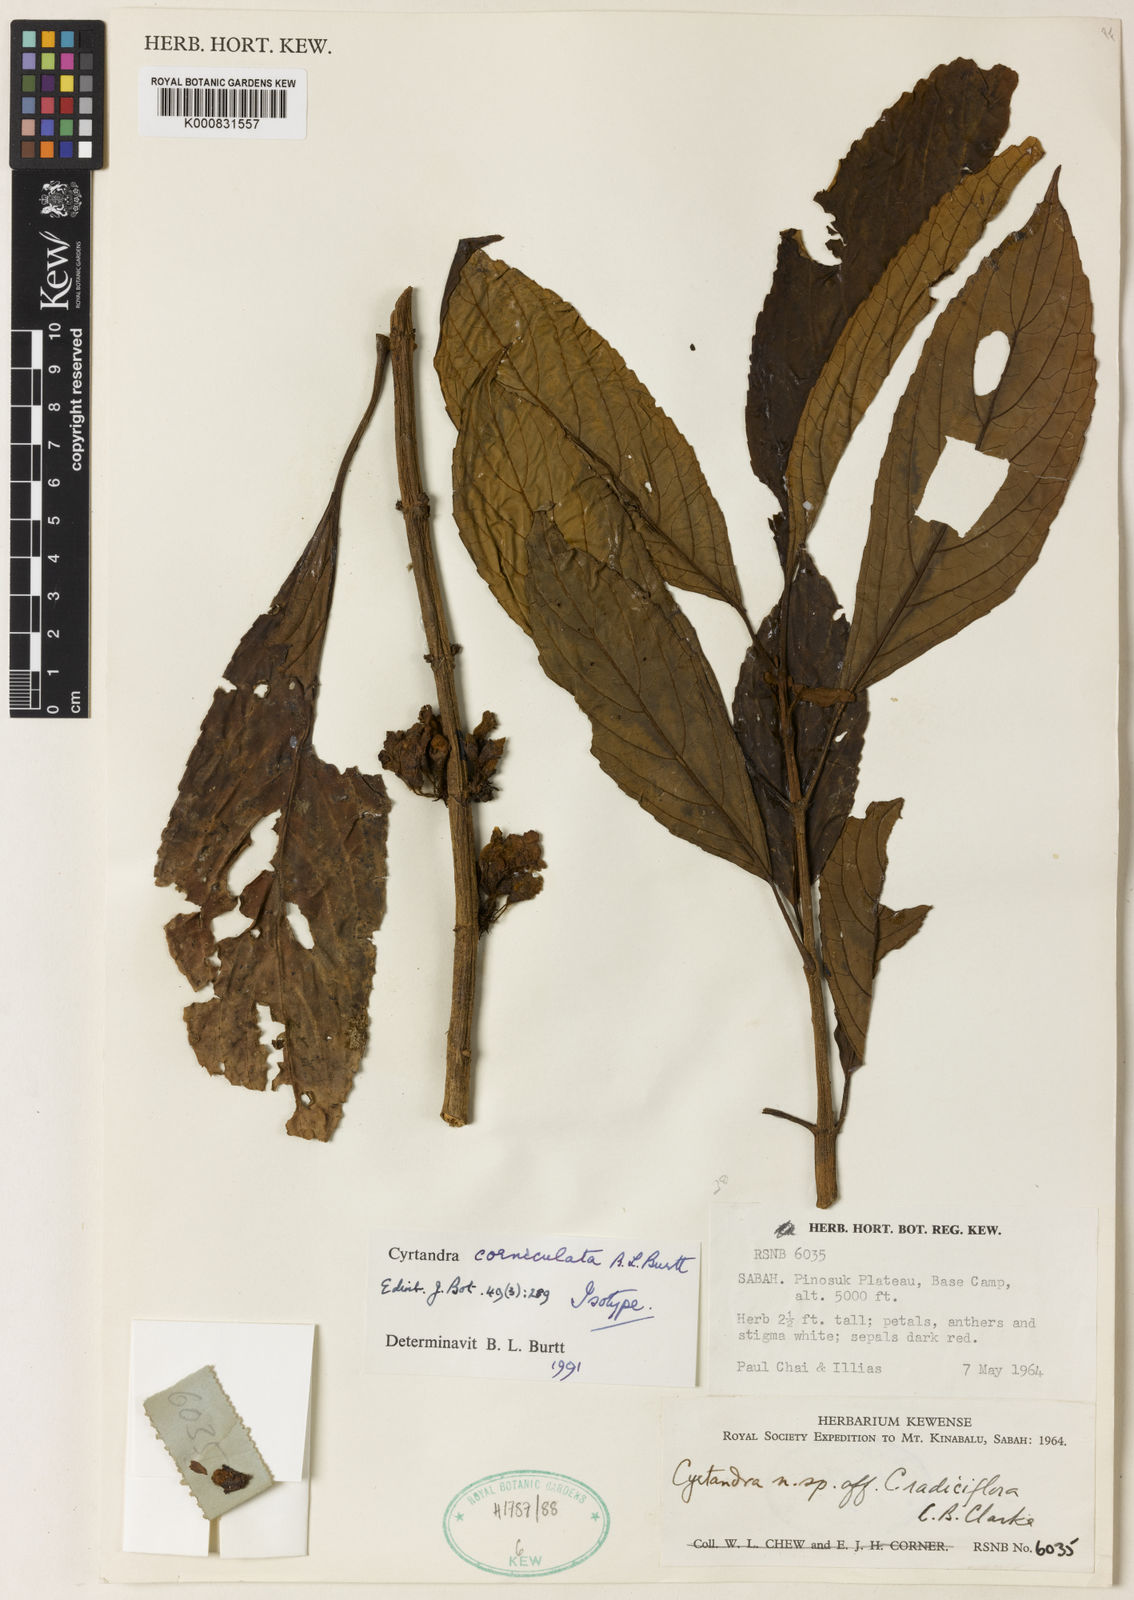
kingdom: Plantae
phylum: Tracheophyta
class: Magnoliopsida
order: Lamiales
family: Gesneriaceae
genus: Cyrtandra
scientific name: Cyrtandra corniculata
